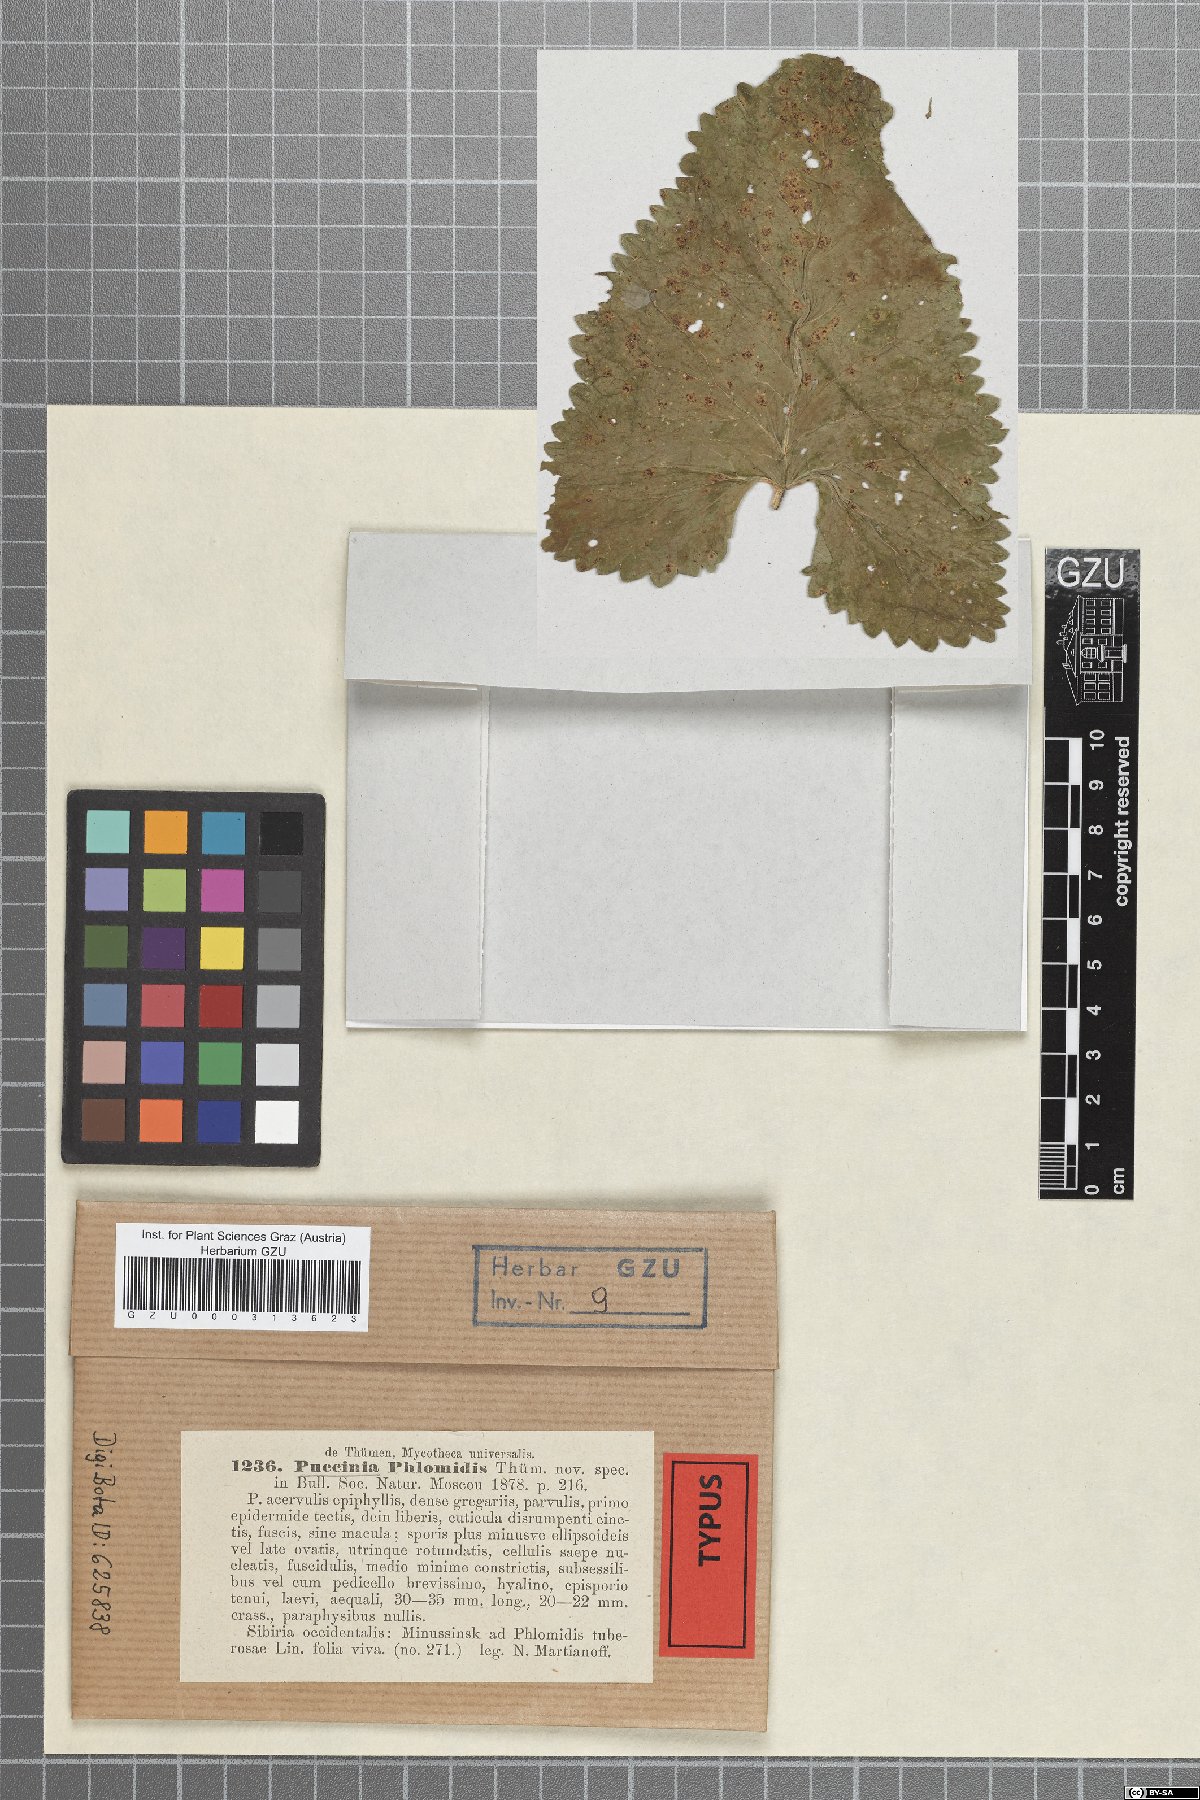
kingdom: Fungi
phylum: Basidiomycota
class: Pucciniomycetes
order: Pucciniales
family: Pucciniaceae
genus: Puccinia
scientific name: Puccinia phlomidis
